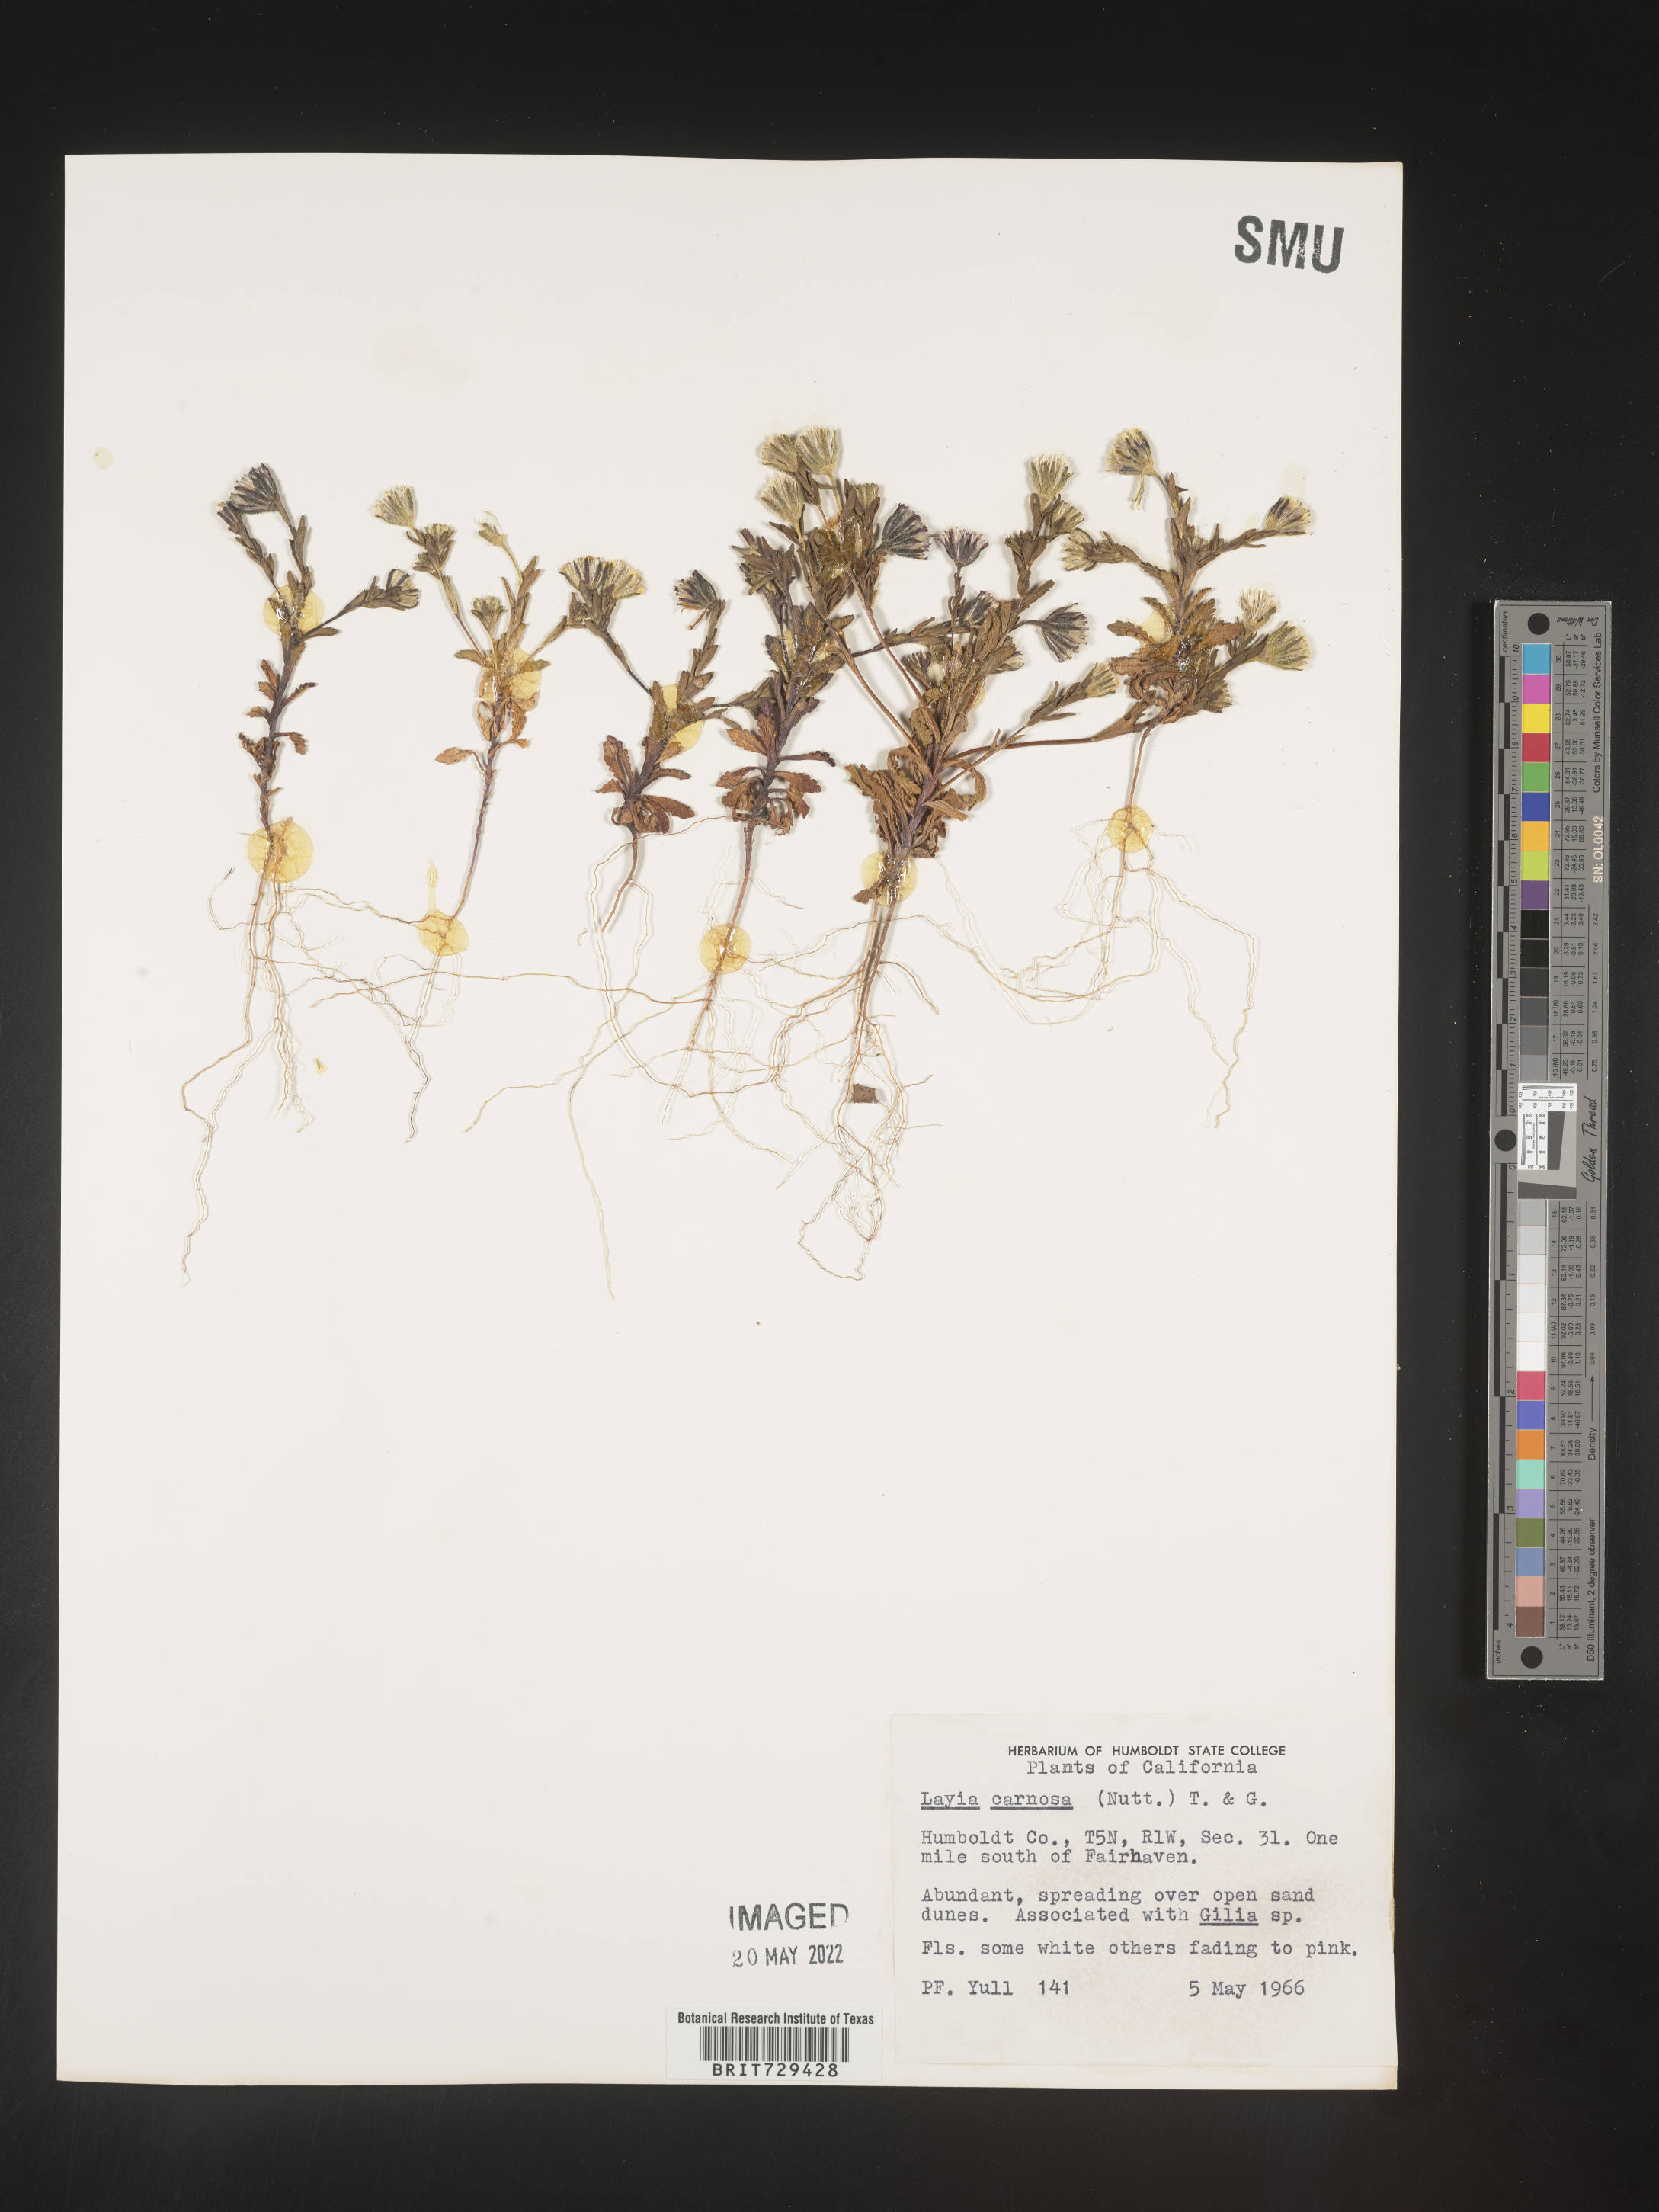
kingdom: Plantae
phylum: Tracheophyta
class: Magnoliopsida
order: Asterales
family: Asteraceae
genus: Layia
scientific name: Layia
